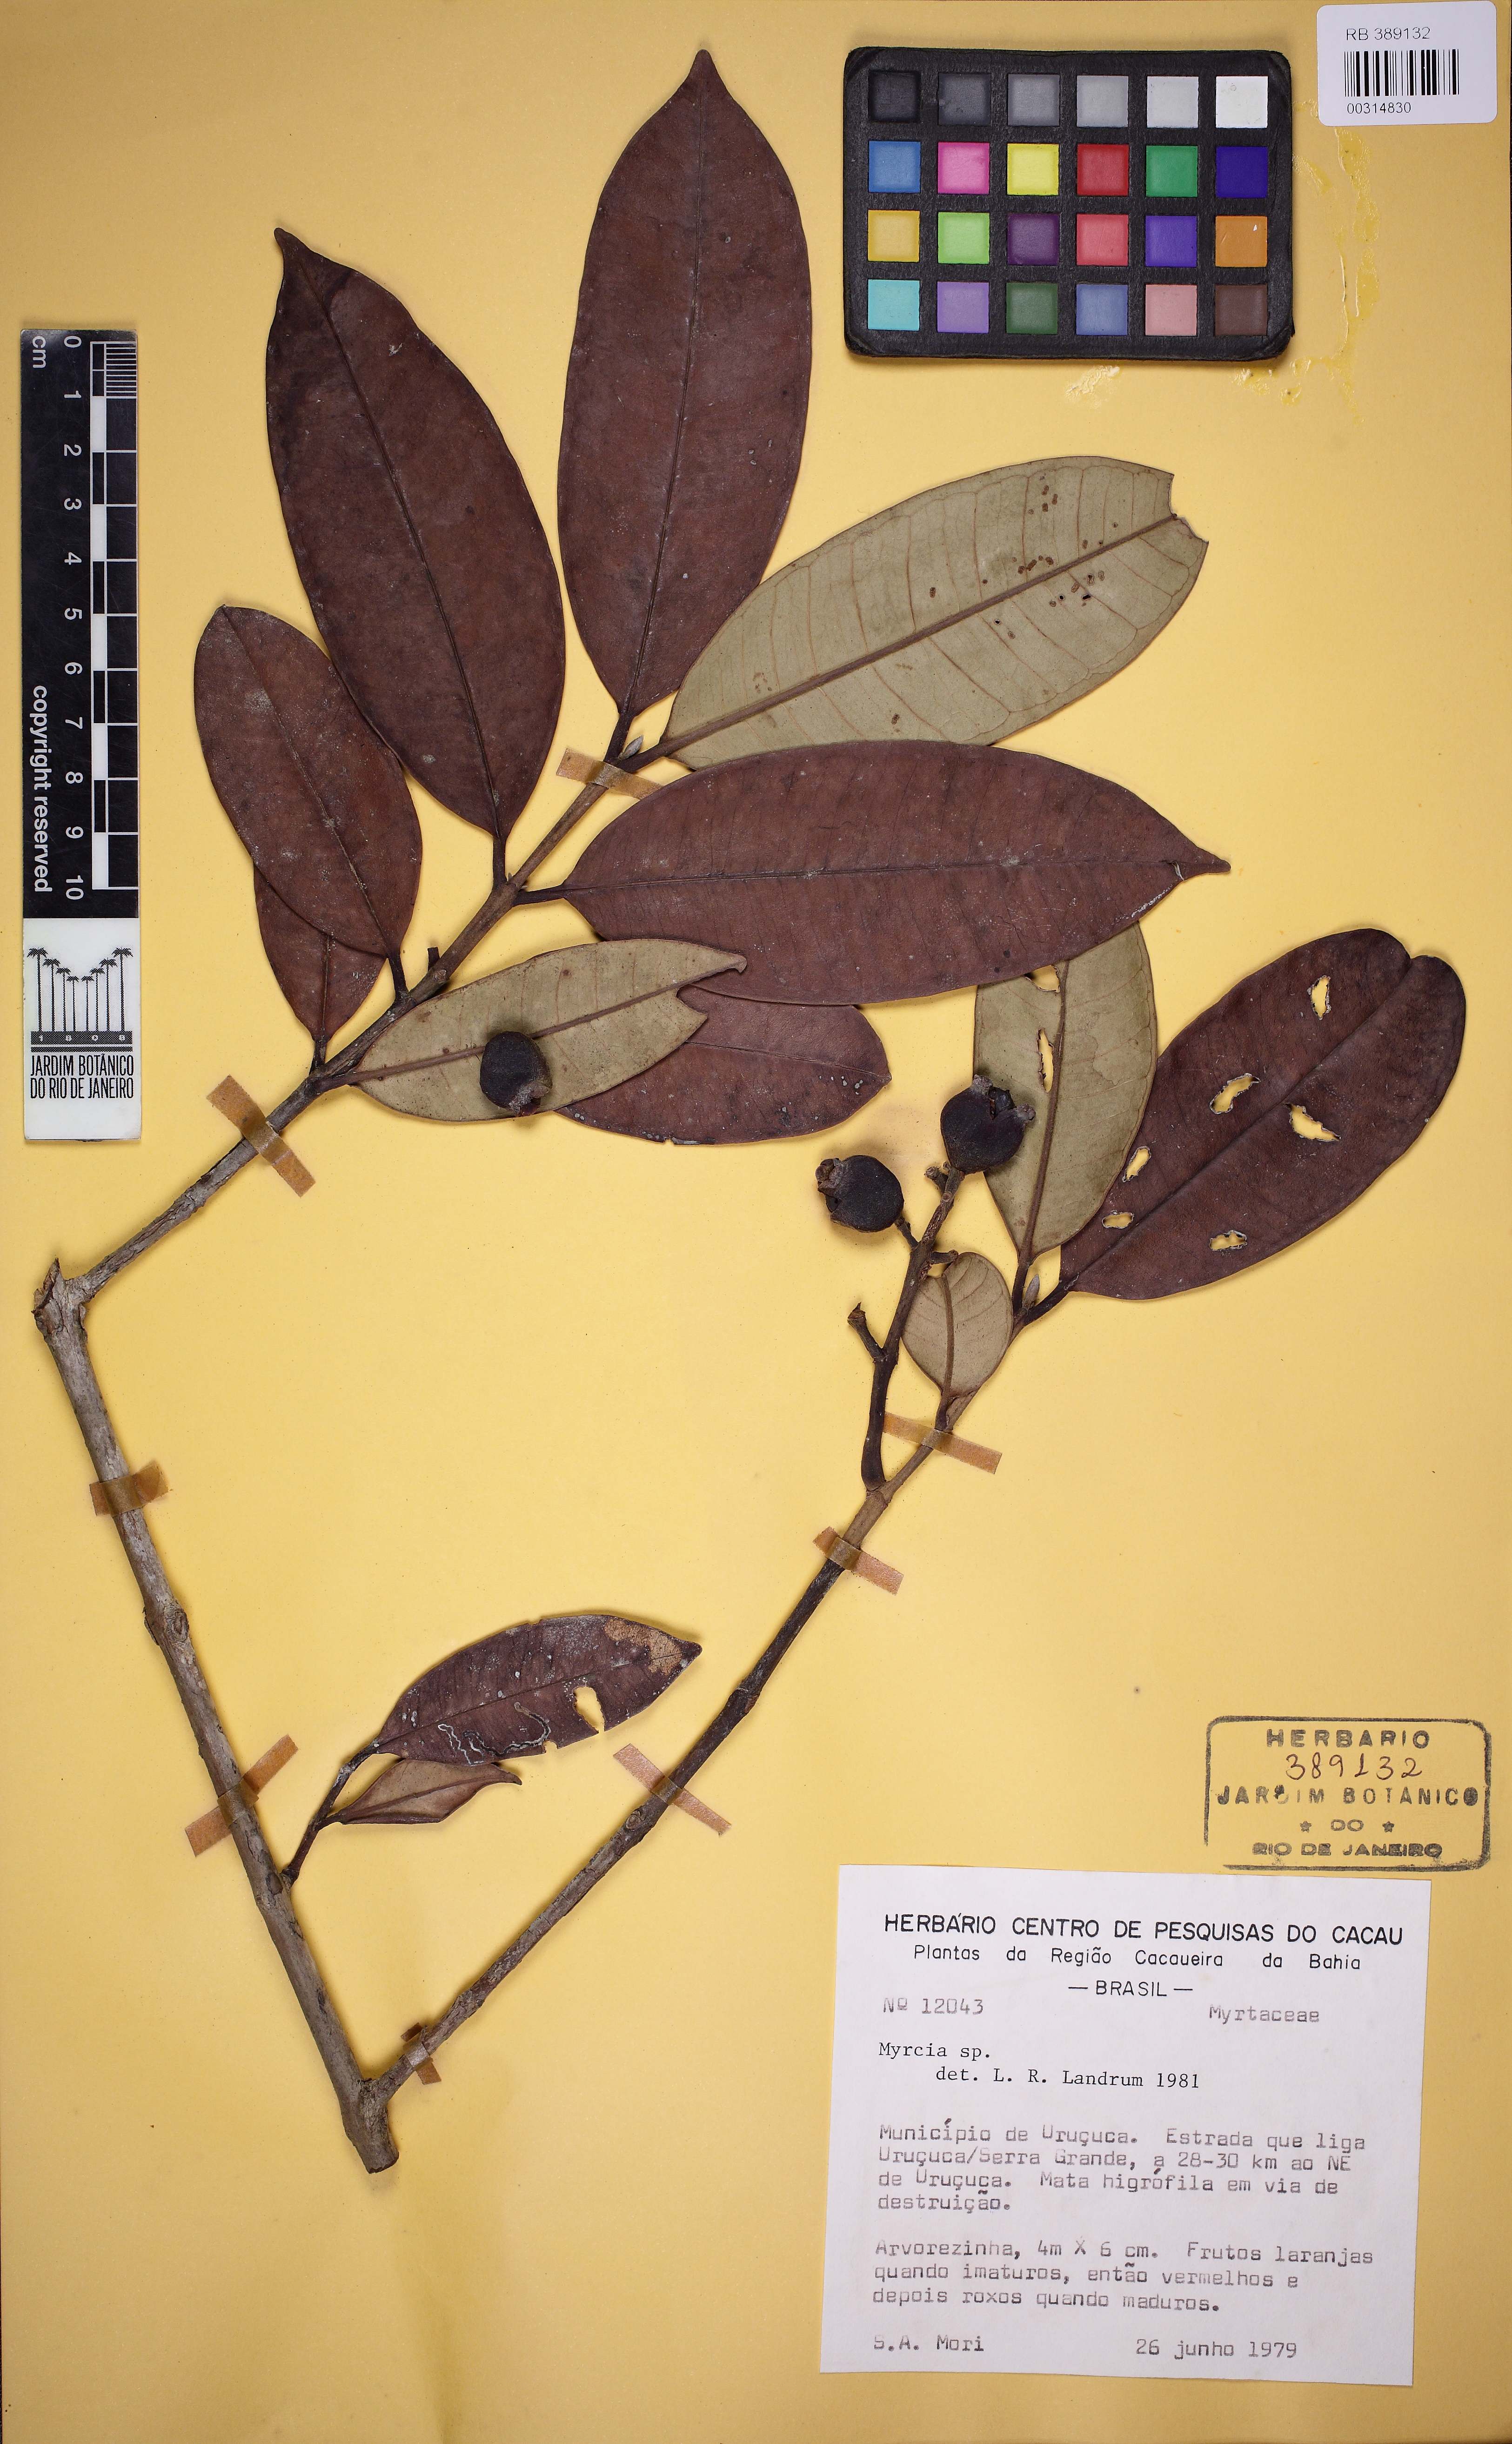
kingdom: Plantae
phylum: Tracheophyta
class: Magnoliopsida
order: Myrtales
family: Myrtaceae
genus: Myrcia
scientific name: Myrcia springiana
